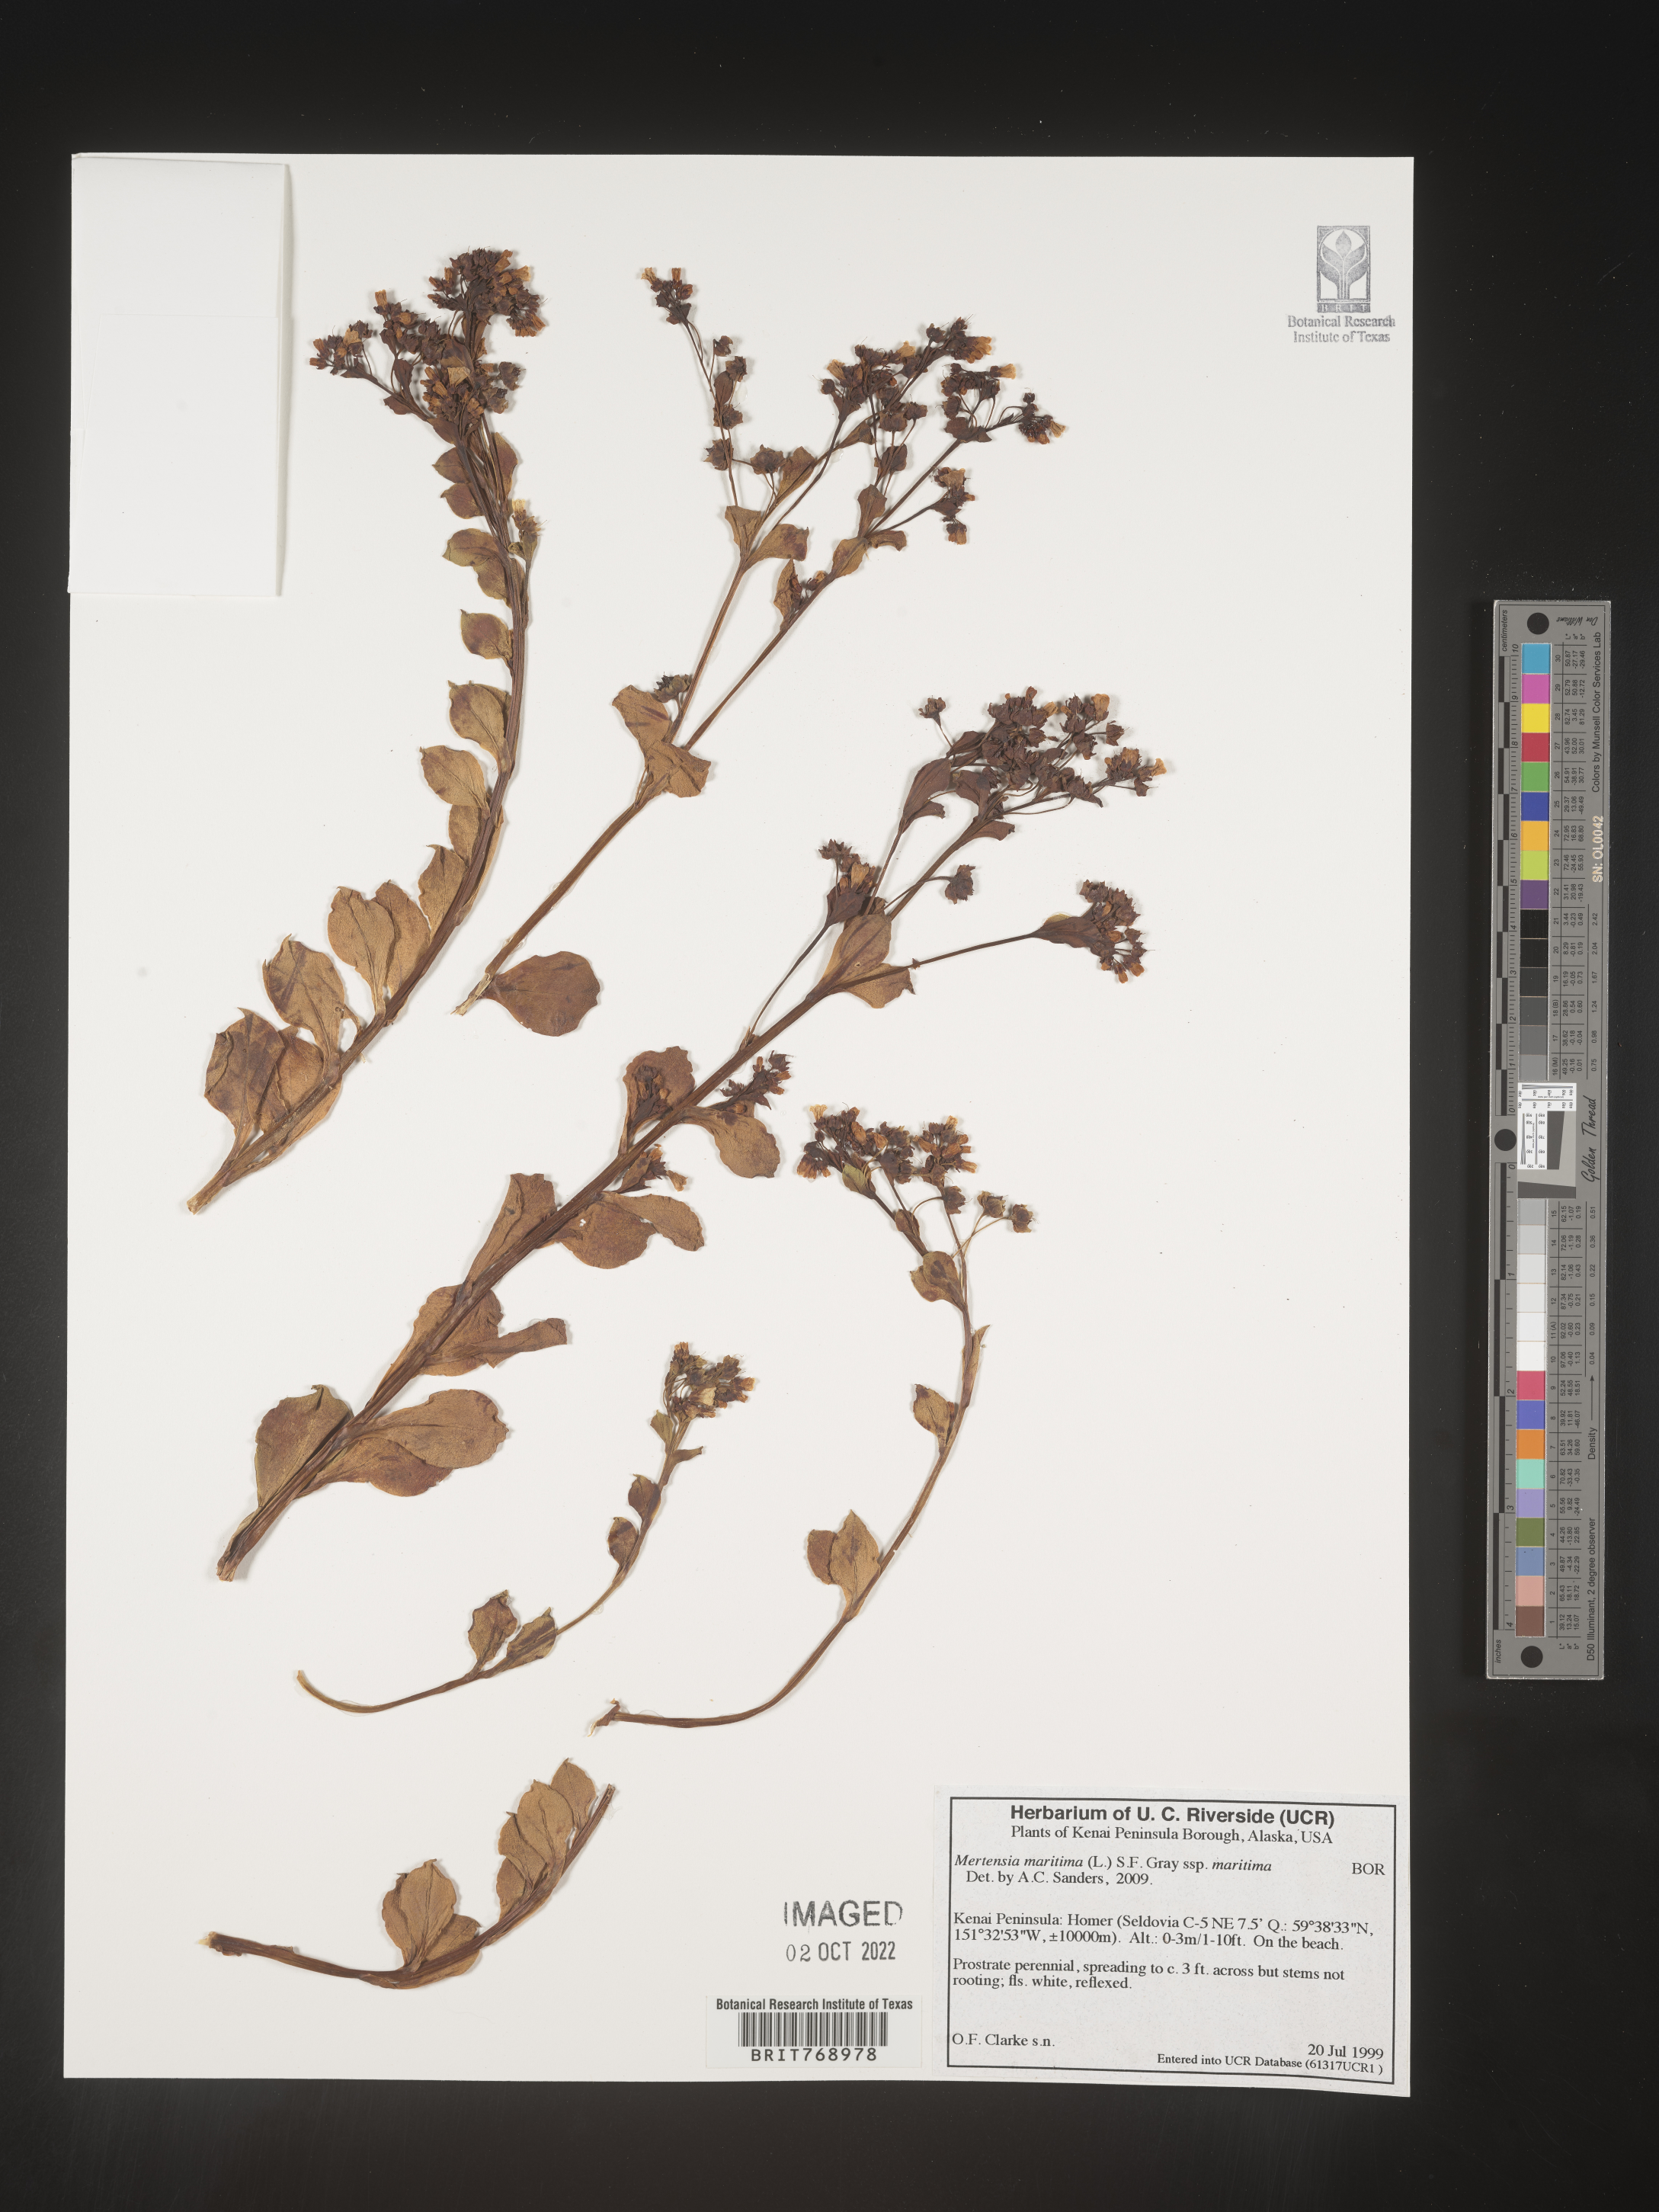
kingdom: Plantae
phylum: Tracheophyta
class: Magnoliopsida
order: Boraginales
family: Boraginaceae
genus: Mertensia
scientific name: Mertensia
